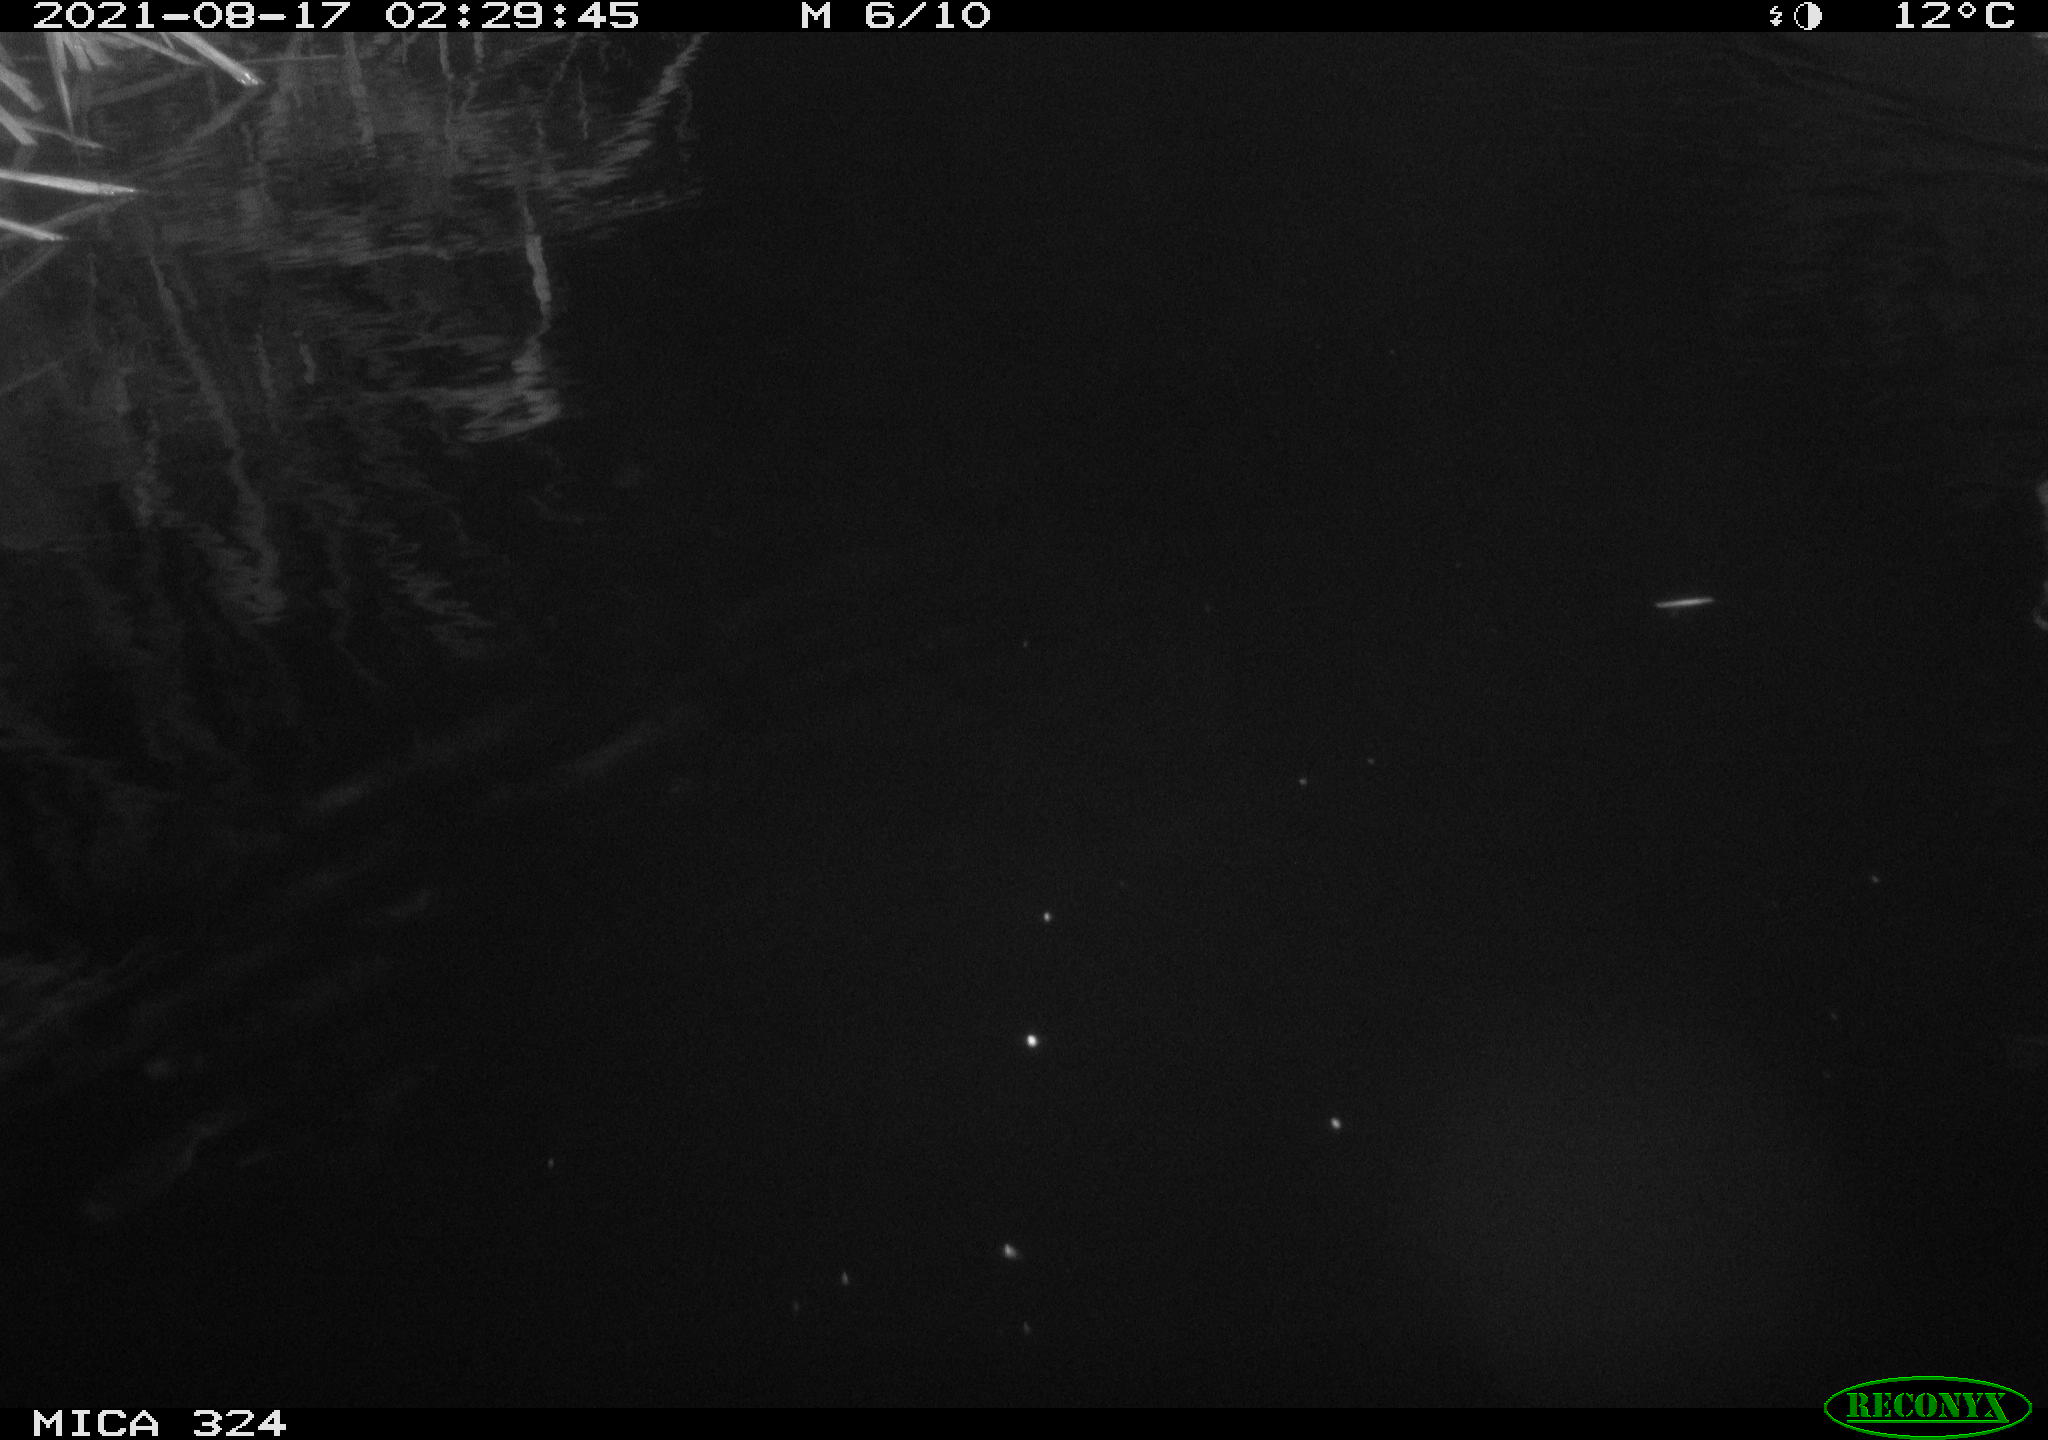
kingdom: Animalia
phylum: Chordata
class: Mammalia
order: Rodentia
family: Cricetidae
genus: Ondatra
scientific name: Ondatra zibethicus
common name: Muskrat
